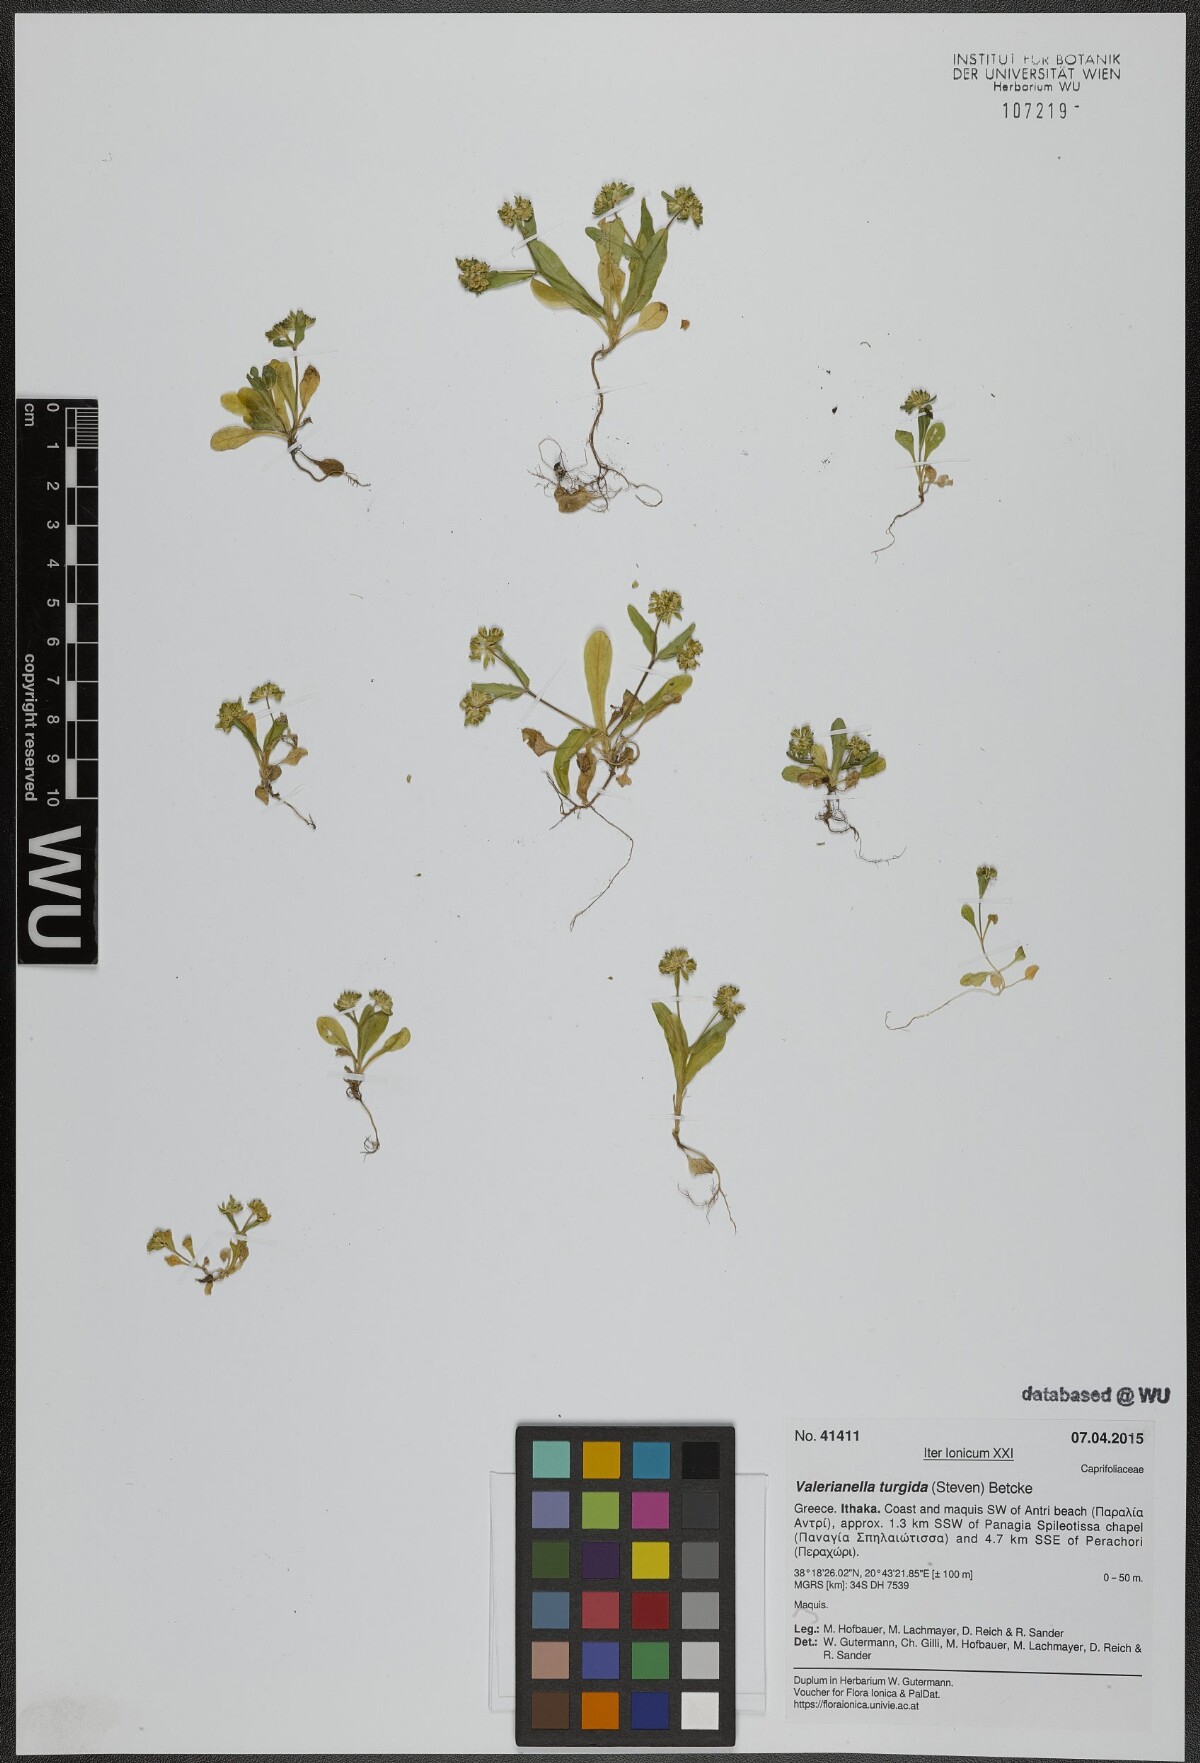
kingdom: Plantae
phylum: Tracheophyta
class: Magnoliopsida
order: Dipsacales
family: Caprifoliaceae
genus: Valerianella
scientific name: Valerianella turgida
